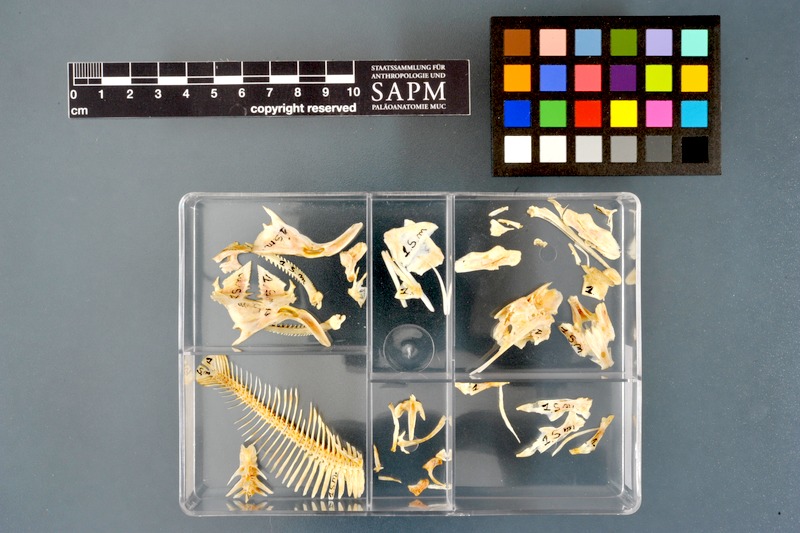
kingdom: Animalia
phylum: Chordata
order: Siluriformes
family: Mochokidae
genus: Synodontis
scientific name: Synodontis membranaceus
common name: Catfish
